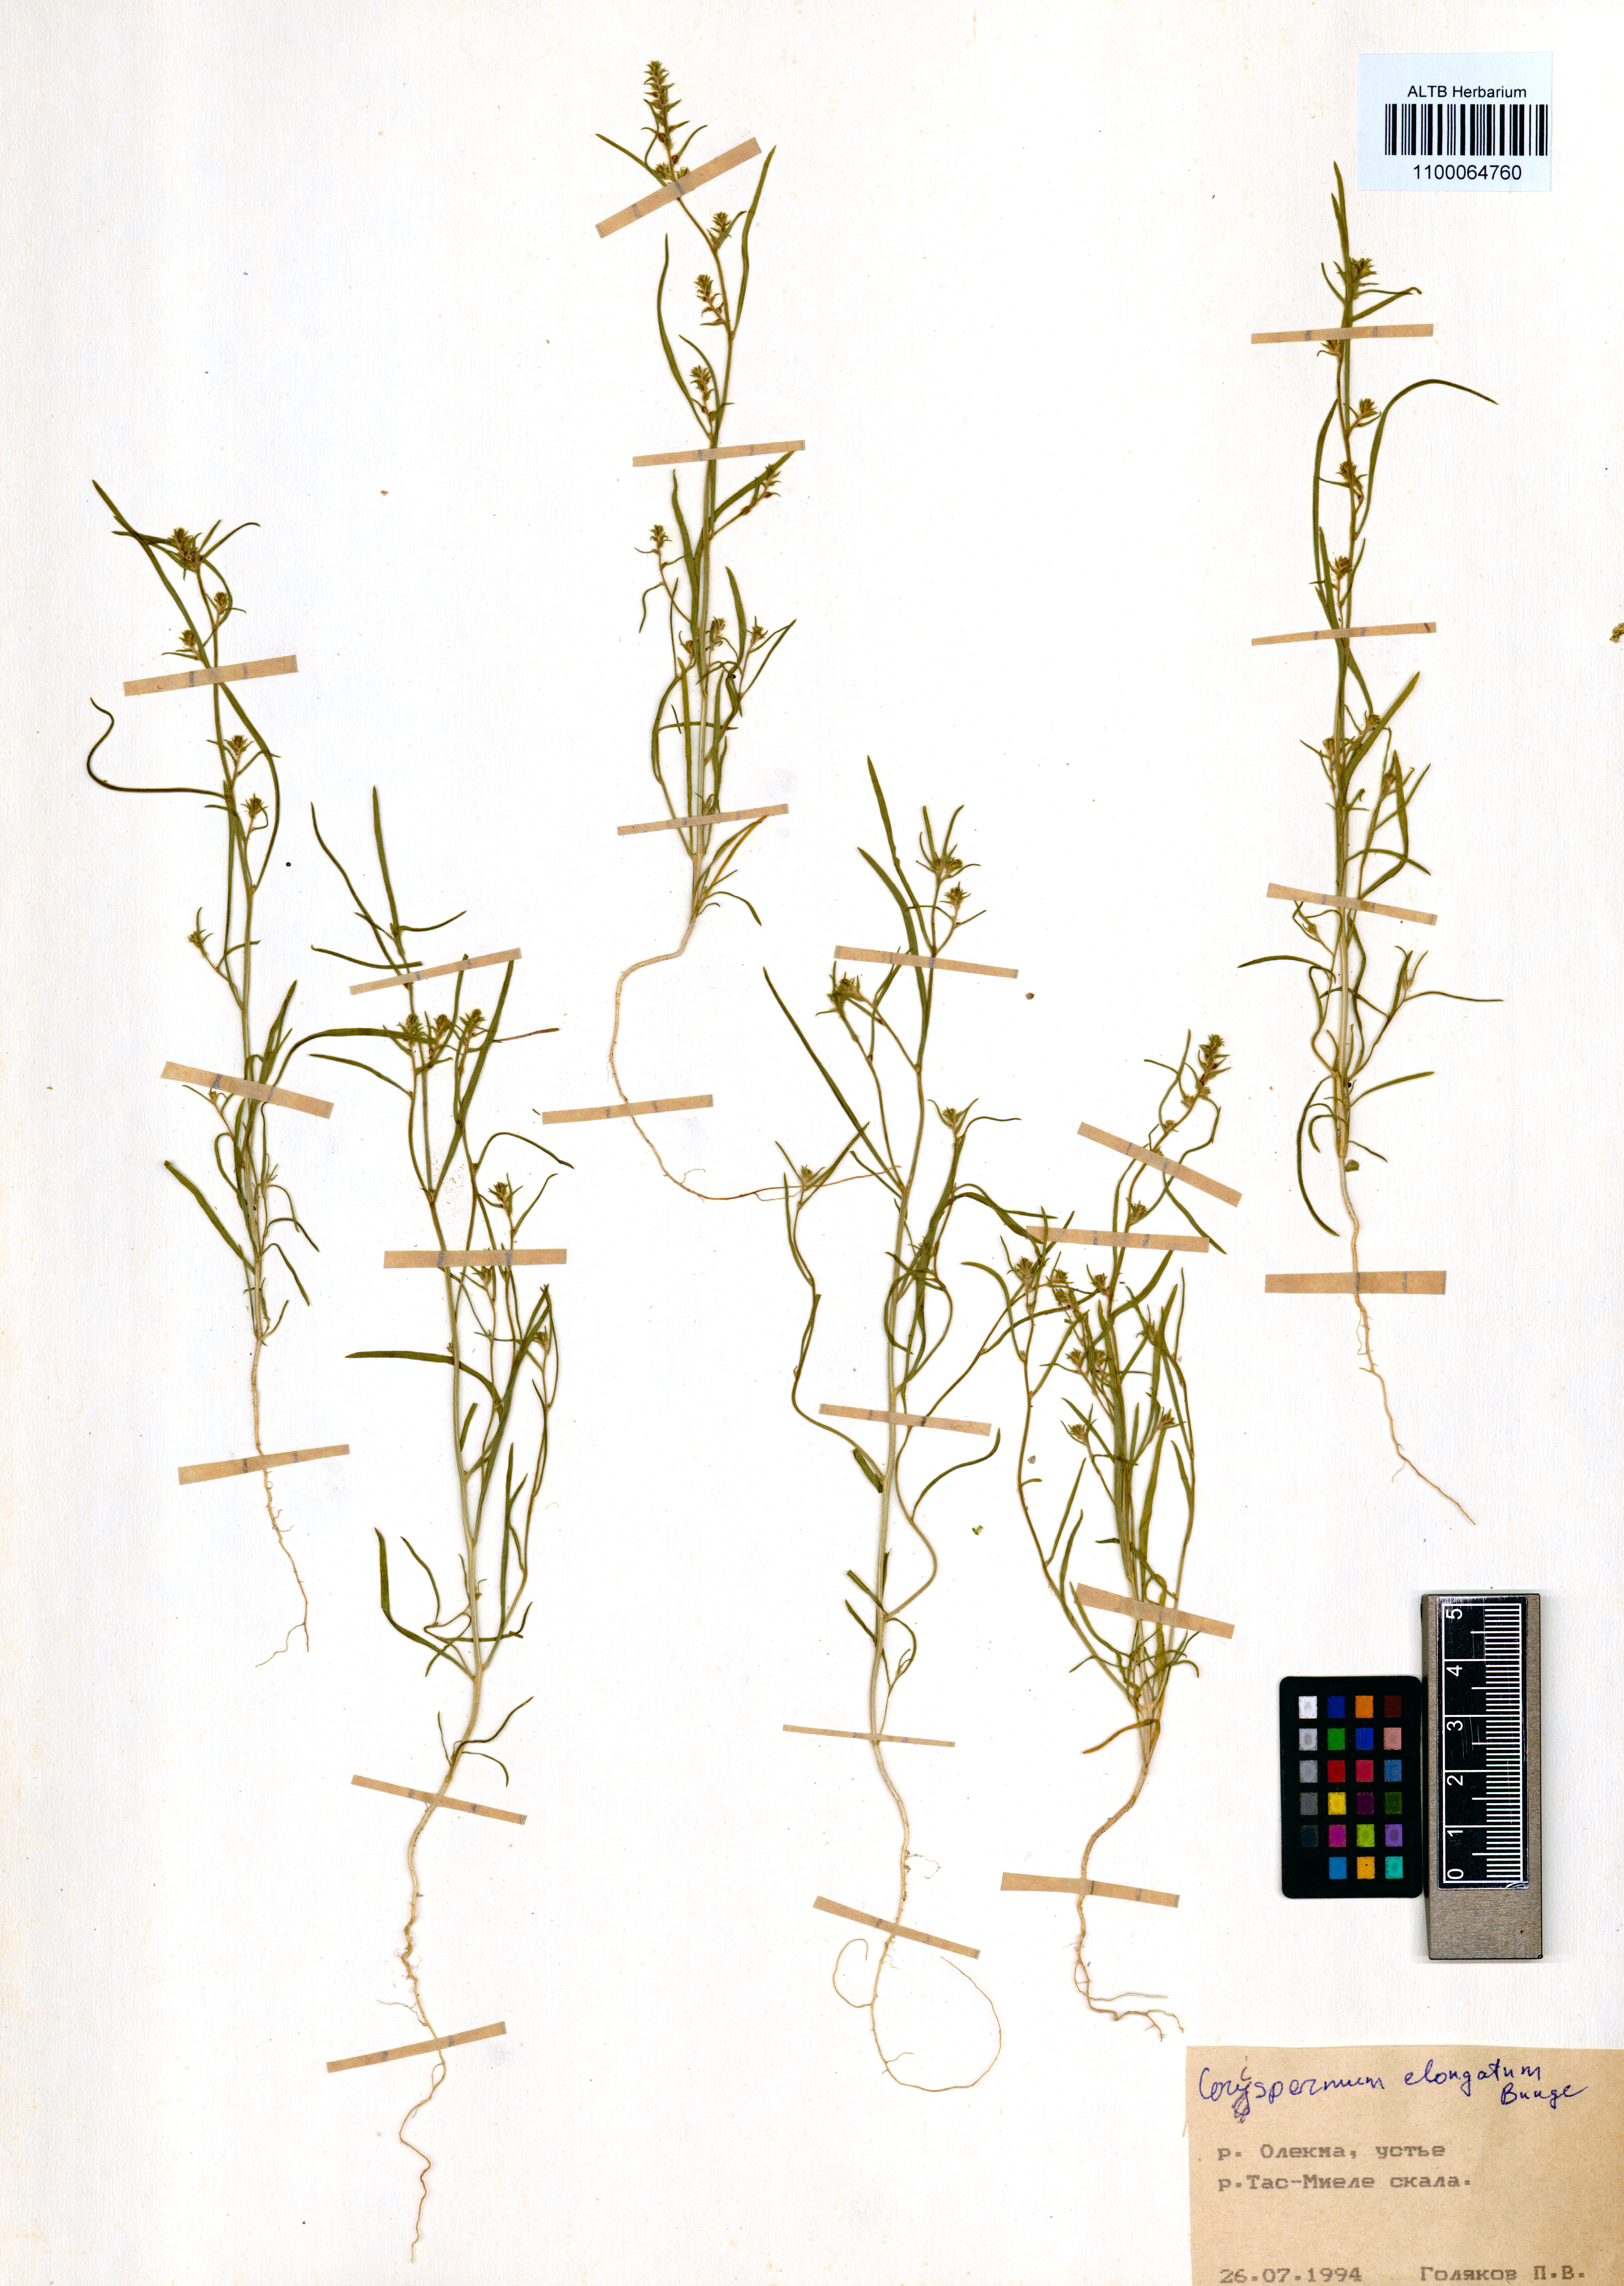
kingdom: Plantae
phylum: Tracheophyta
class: Magnoliopsida
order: Caryophyllales
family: Amaranthaceae
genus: Corispermum
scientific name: Corispermum elongatum
